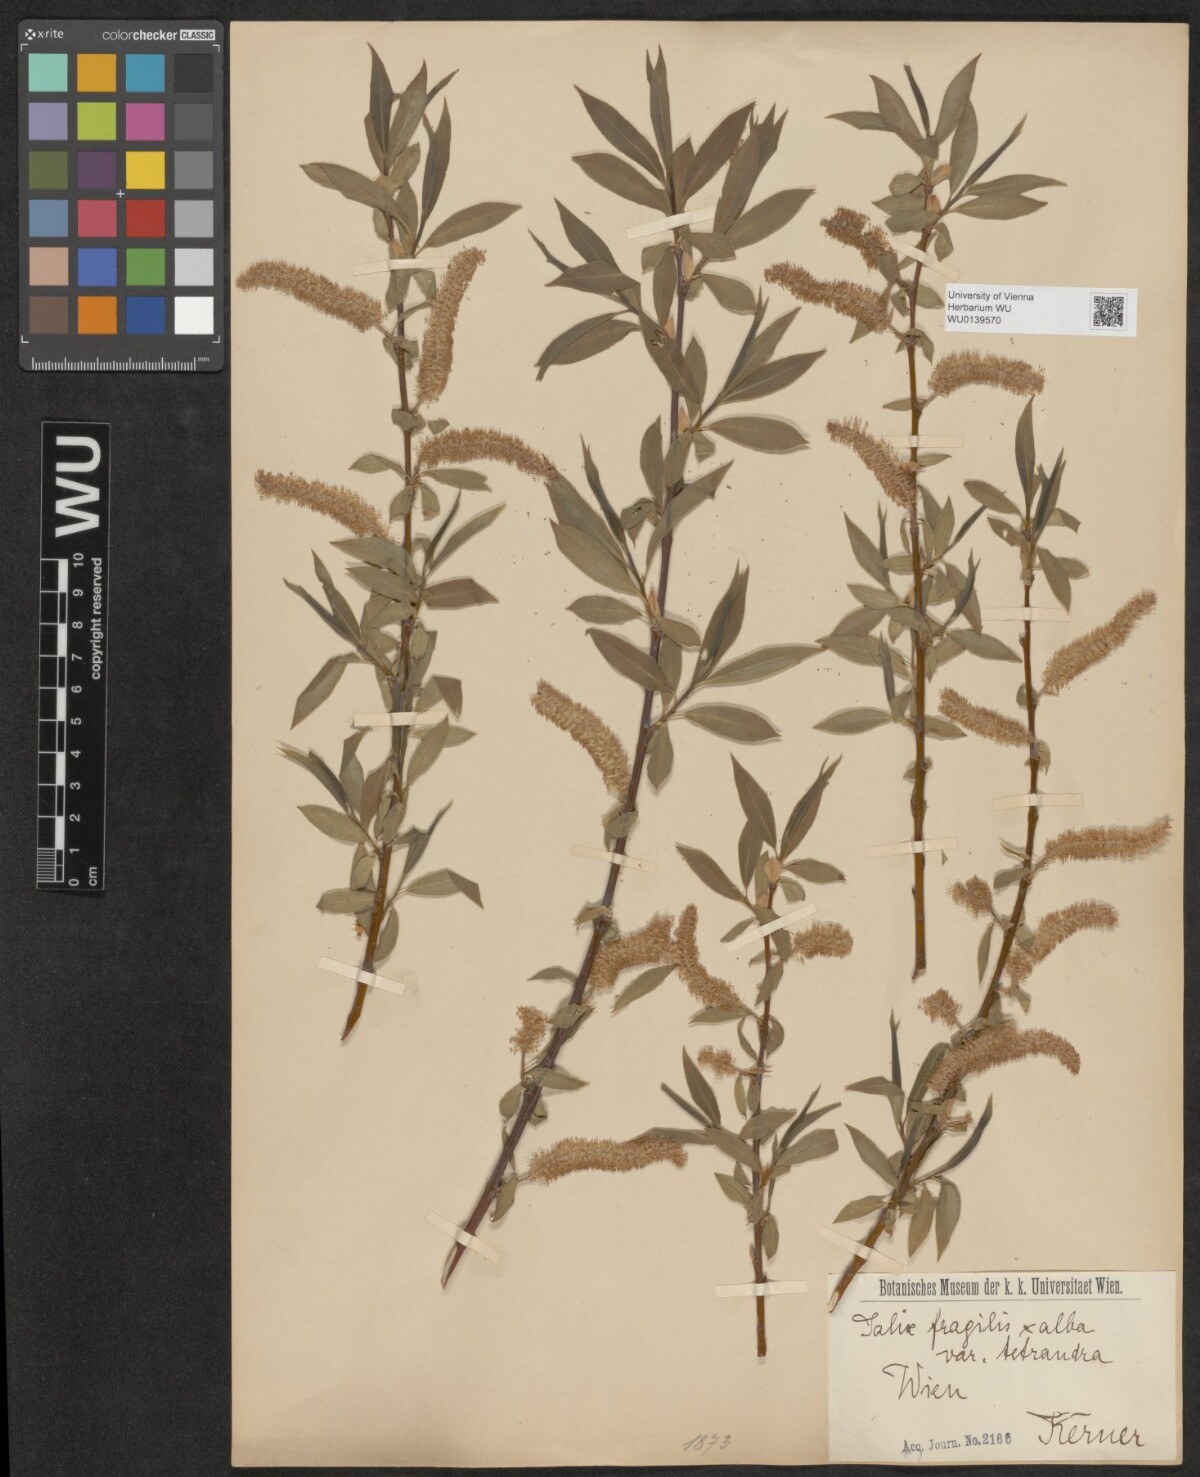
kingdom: Plantae
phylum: Tracheophyta
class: Magnoliopsida
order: Malpighiales
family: Salicaceae
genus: Salix
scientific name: Salix rubens
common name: Hybrid crack willow
